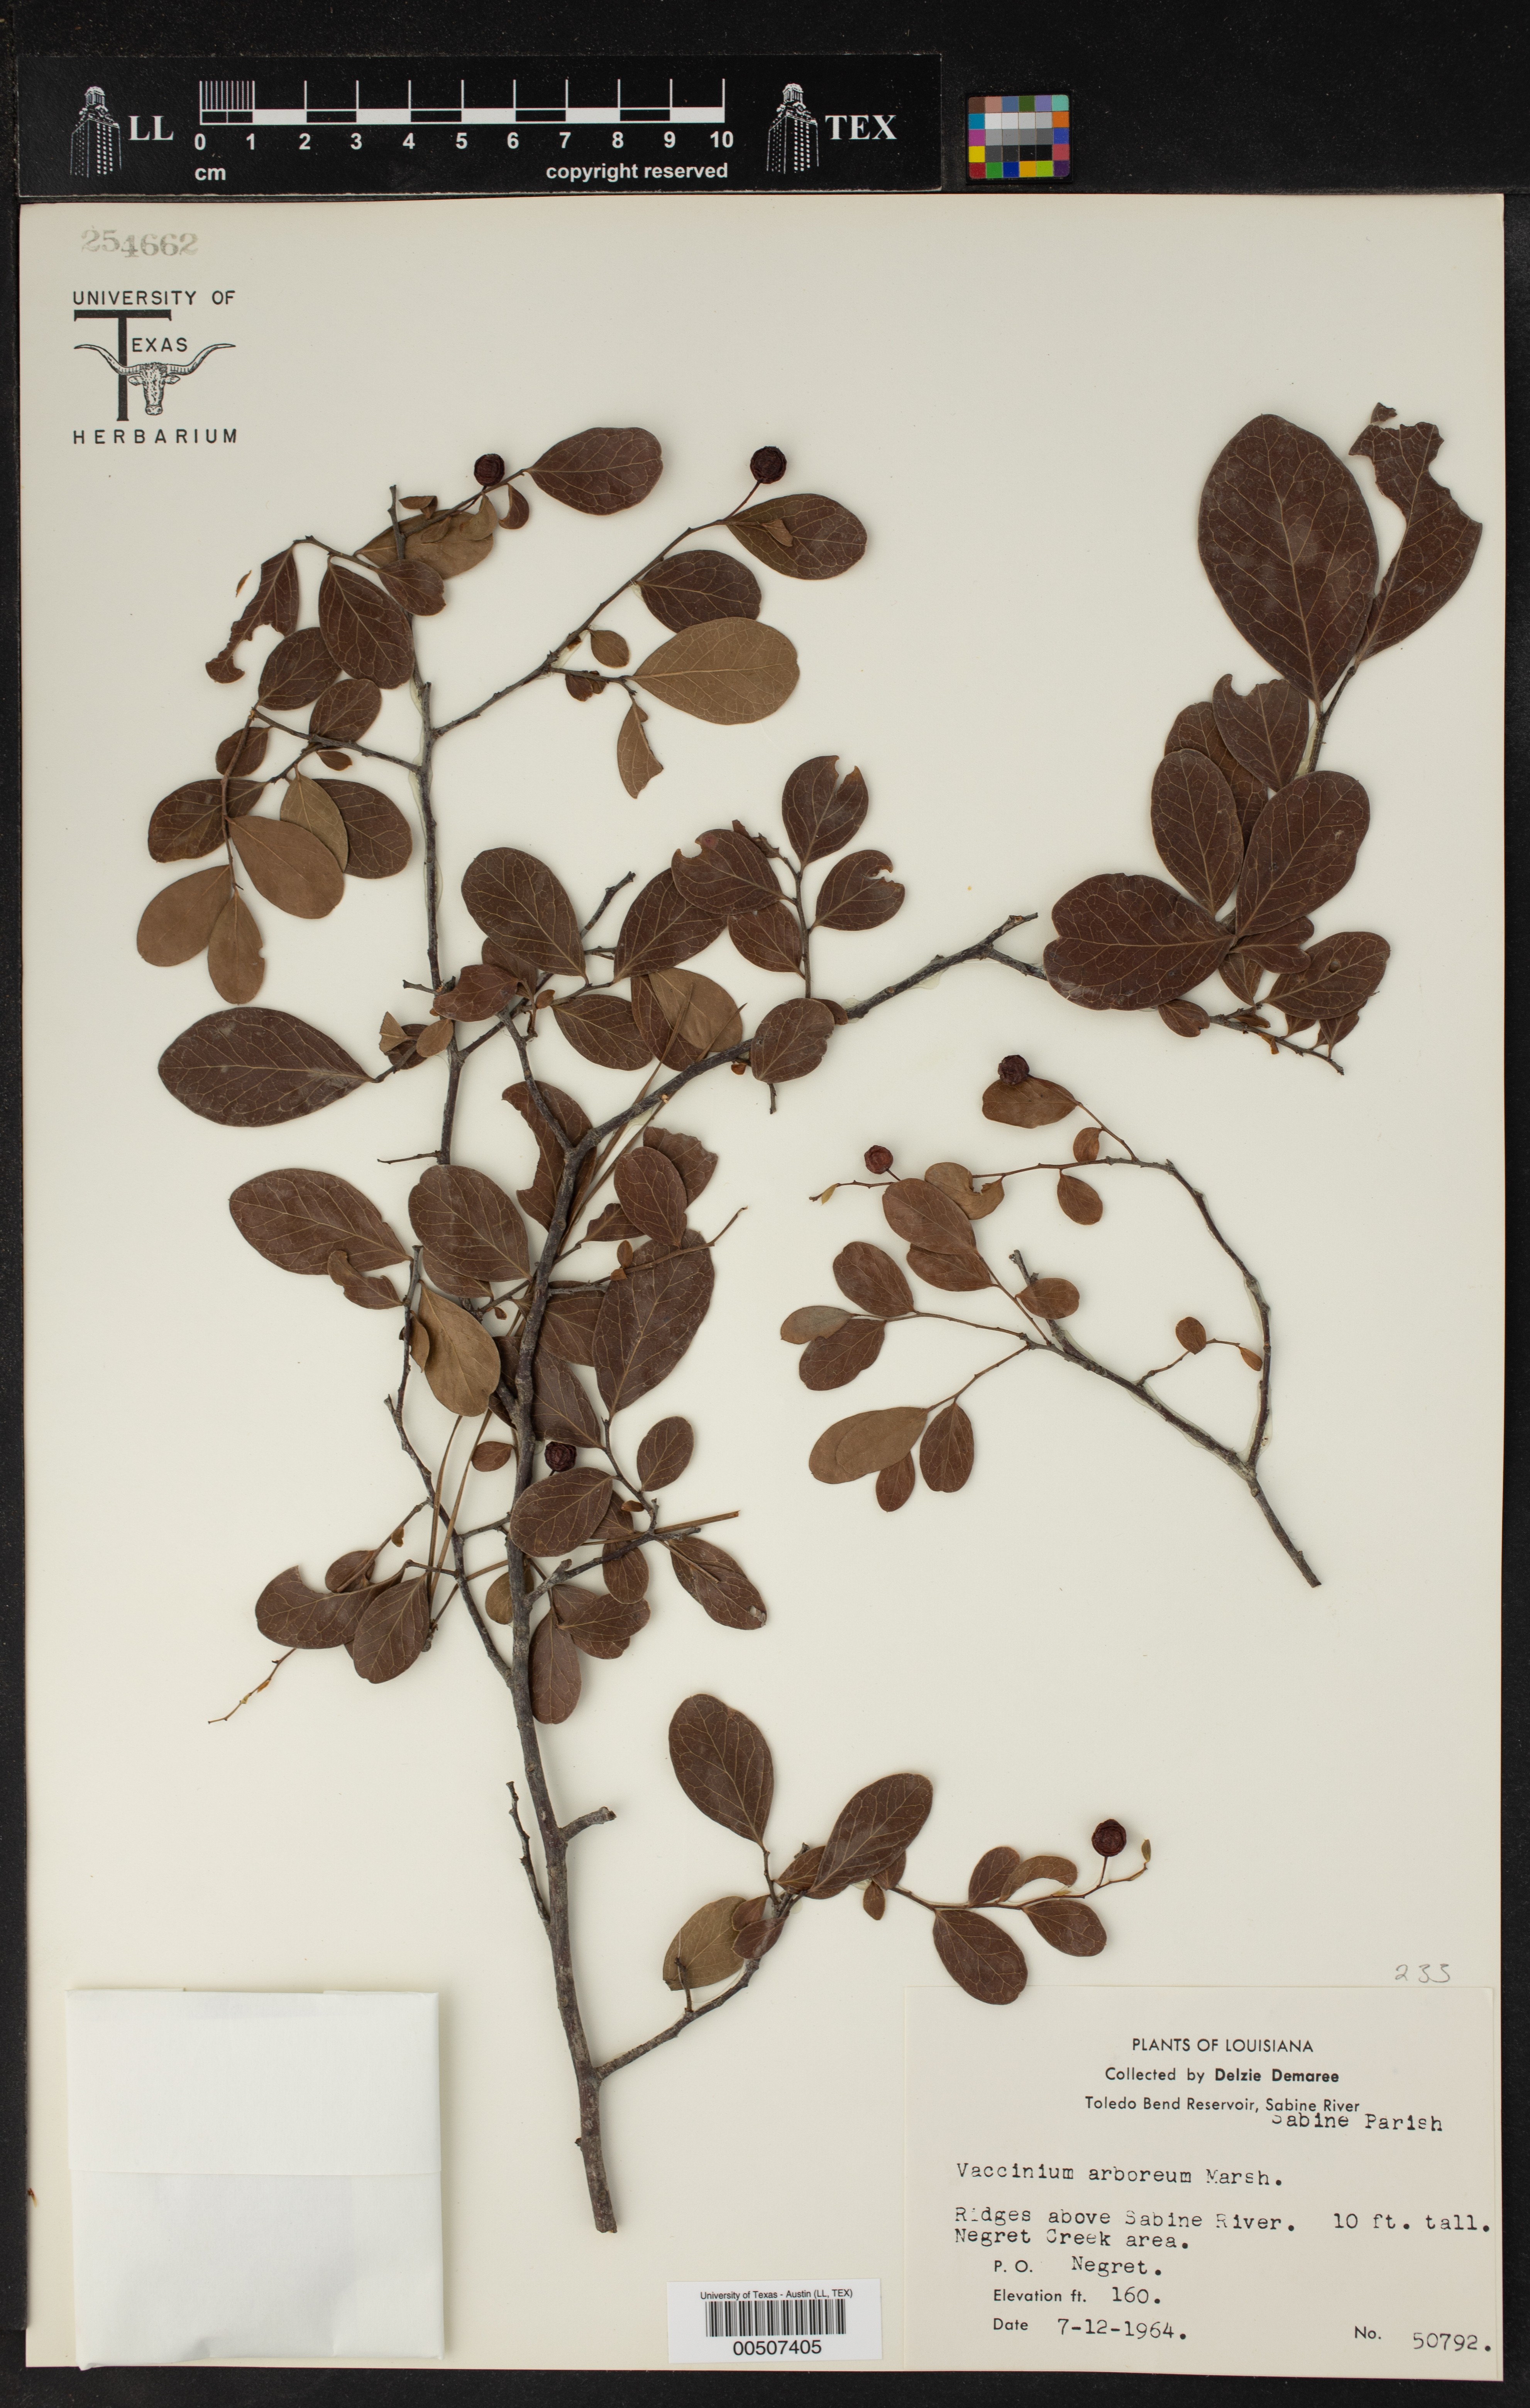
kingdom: Plantae
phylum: Tracheophyta
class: Magnoliopsida
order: Ericales
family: Ericaceae
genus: Vaccinium
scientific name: Vaccinium arboreum
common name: Farkleberry
